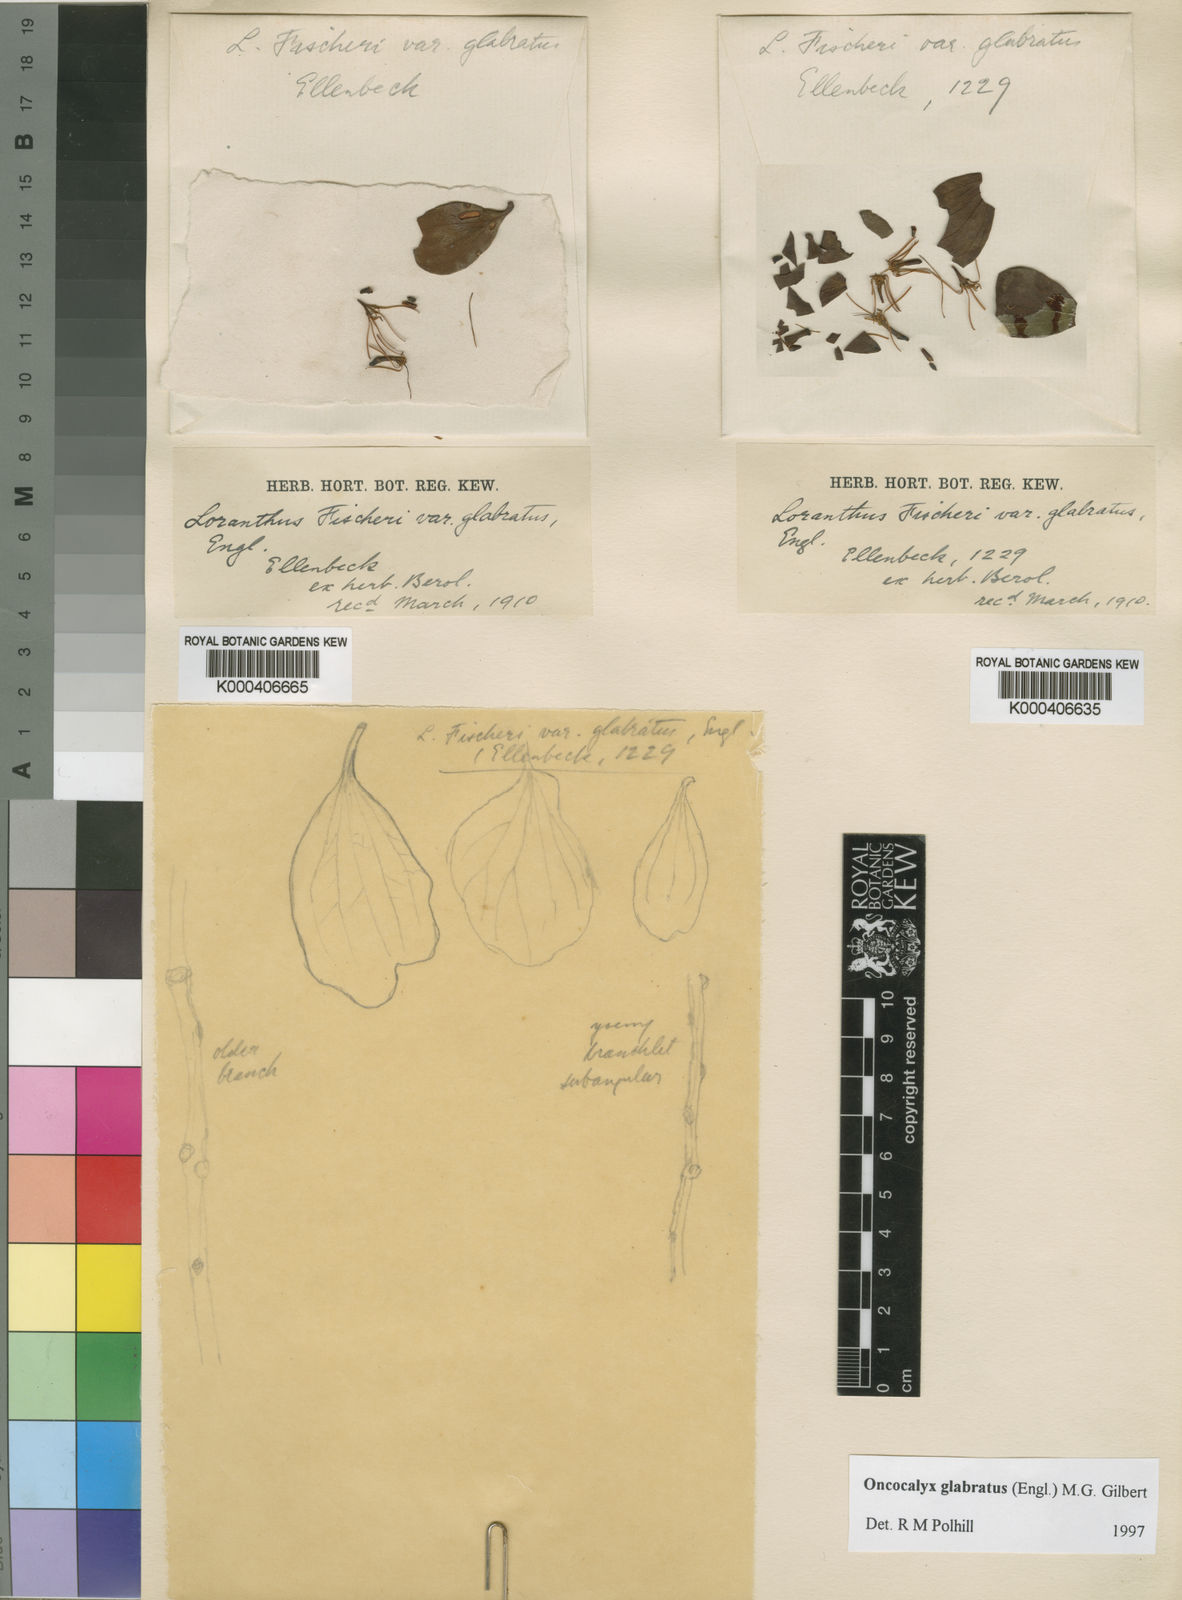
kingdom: Plantae
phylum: Tracheophyta
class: Magnoliopsida
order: Santalales
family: Loranthaceae
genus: Oncocalyx
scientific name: Oncocalyx glabratus
